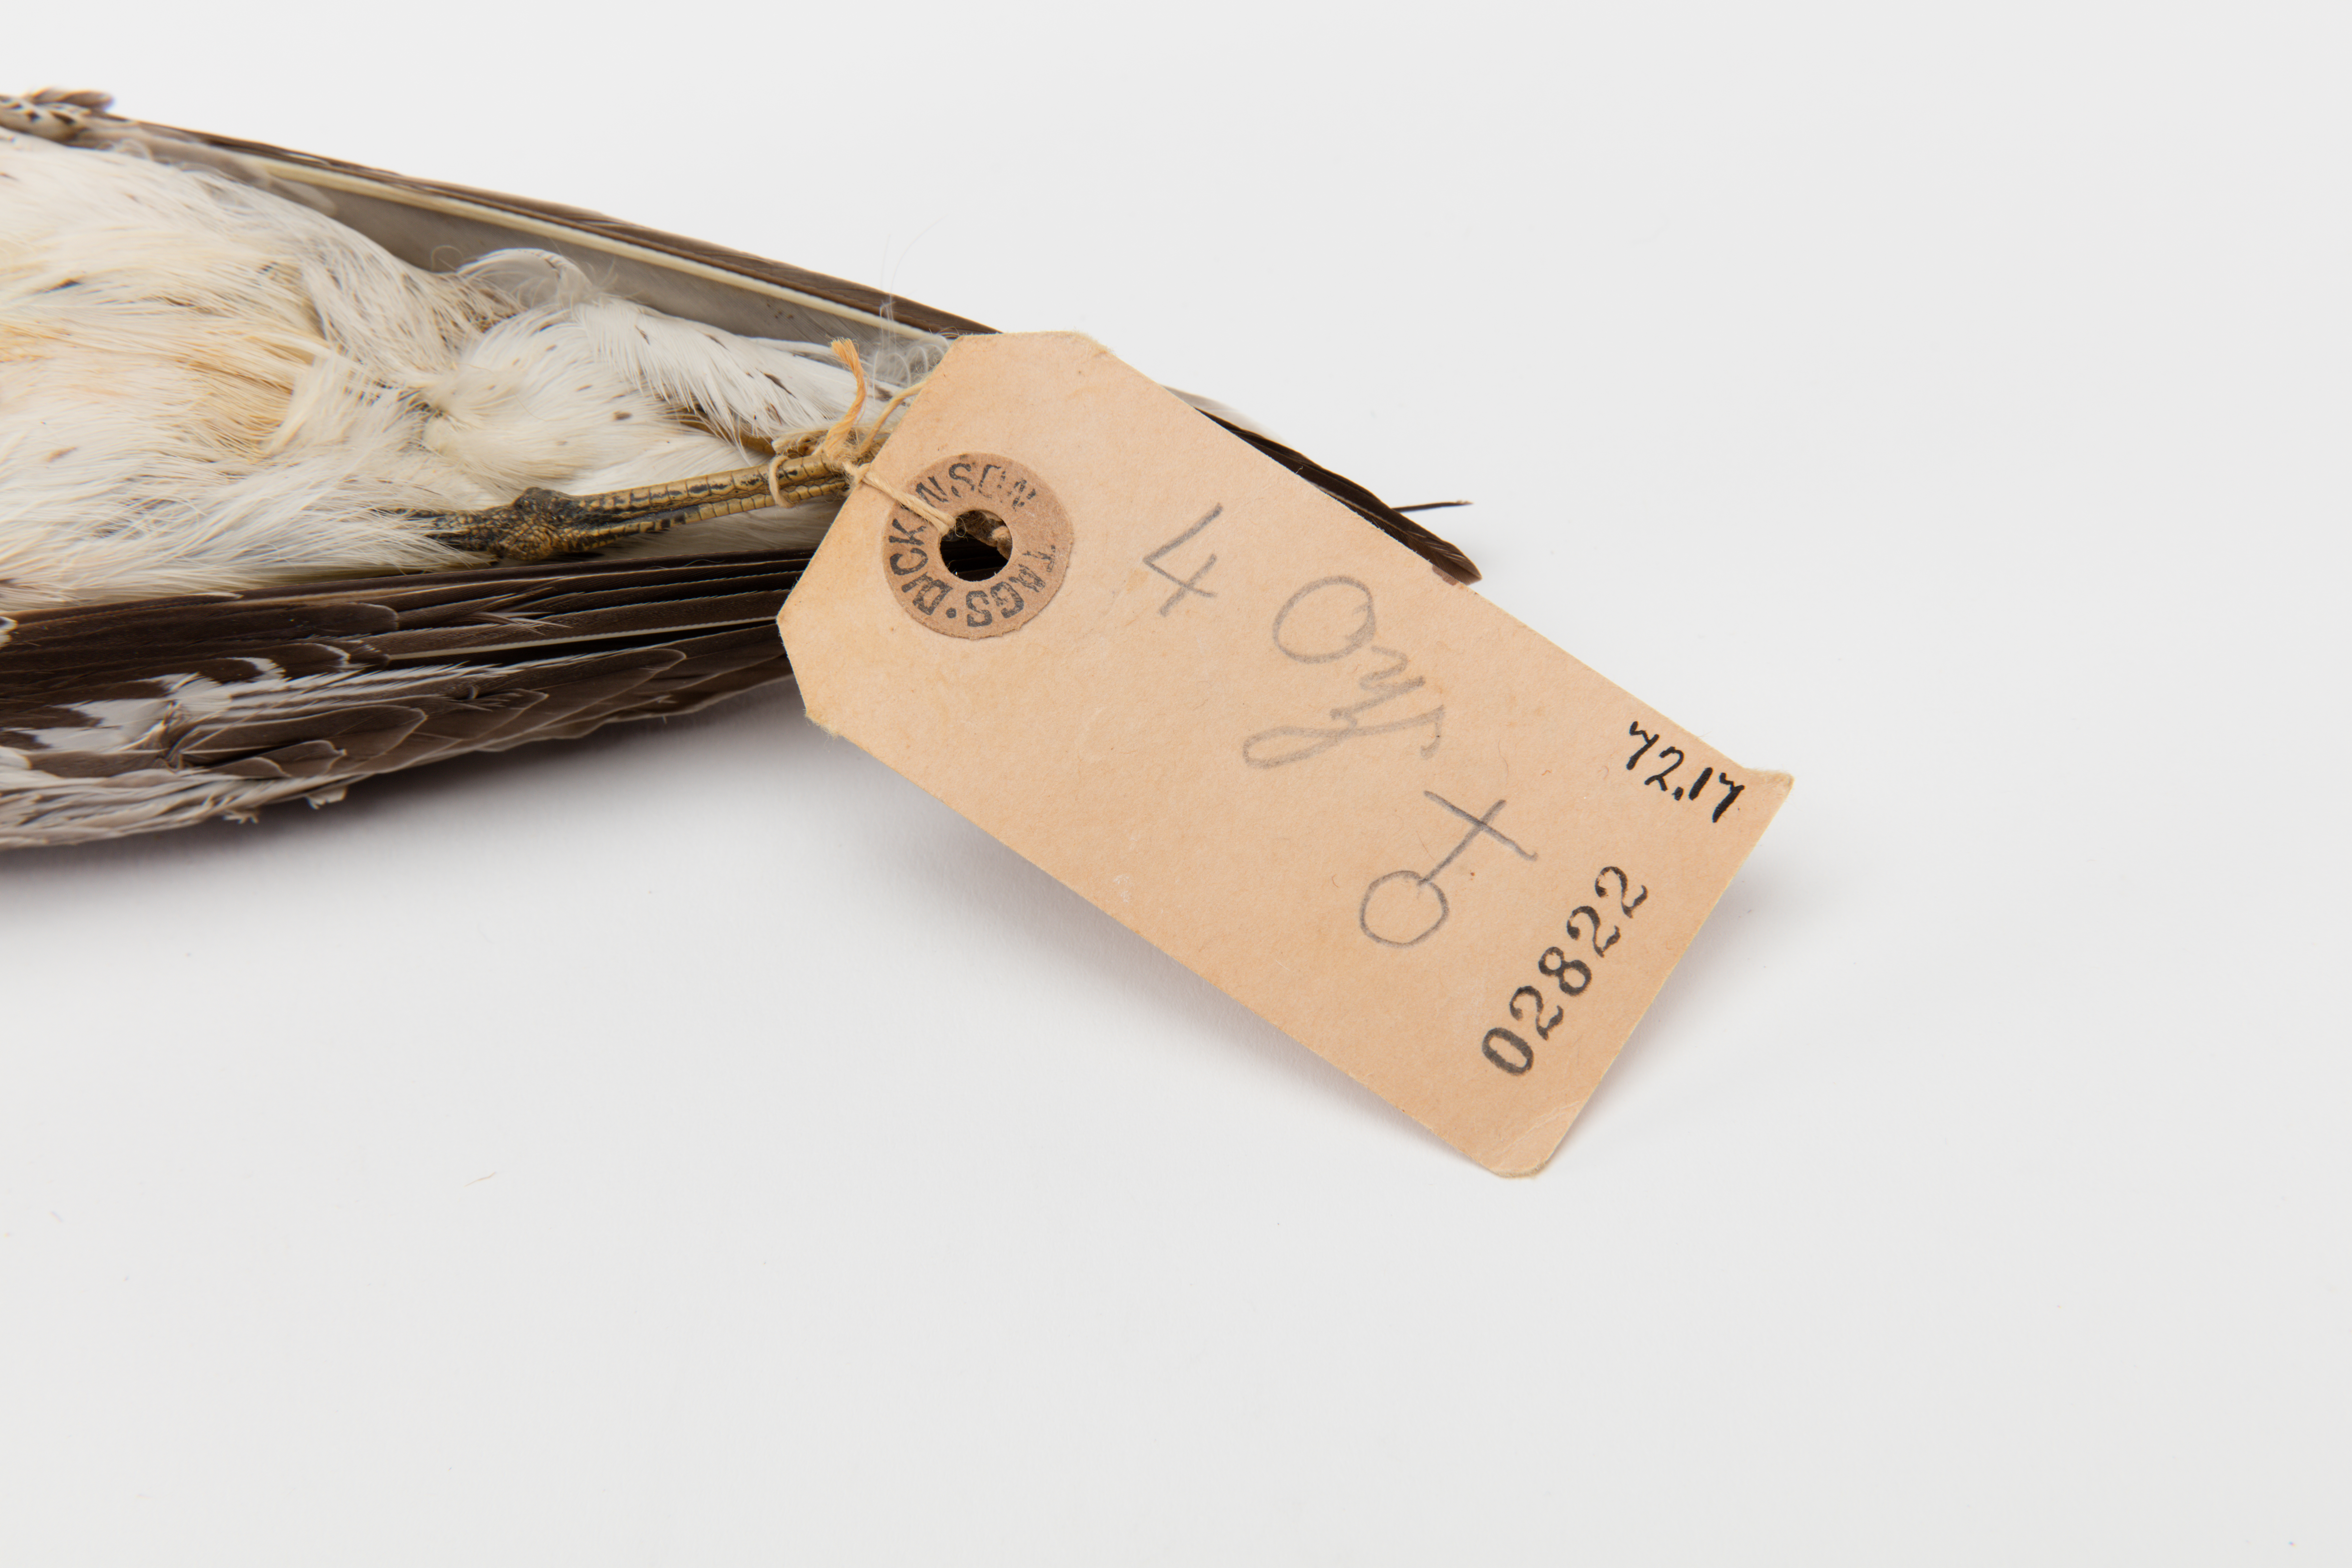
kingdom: Animalia
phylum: Chordata
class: Aves
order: Charadriiformes
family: Scolopacidae
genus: Calidris
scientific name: Calidris canutus
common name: Red knot
